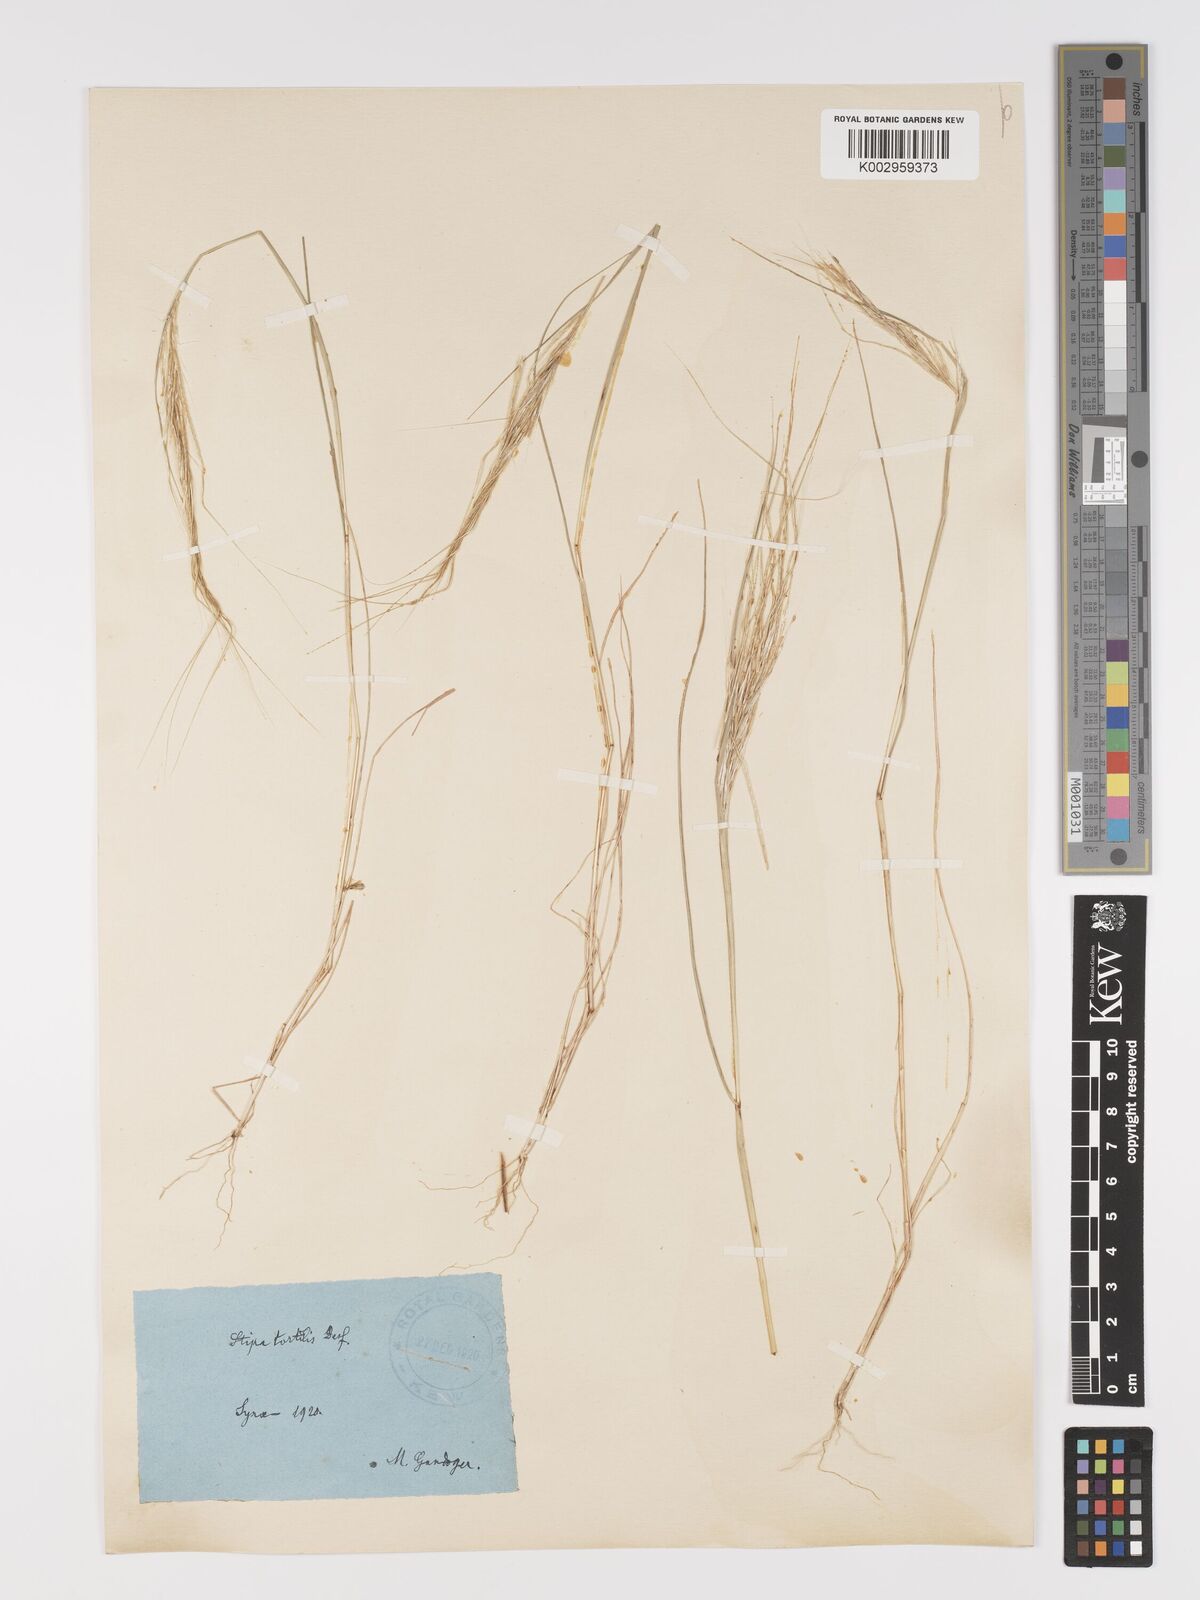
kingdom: Plantae
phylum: Tracheophyta
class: Liliopsida
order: Poales
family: Poaceae
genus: Stipellula
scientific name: Stipellula capensis
